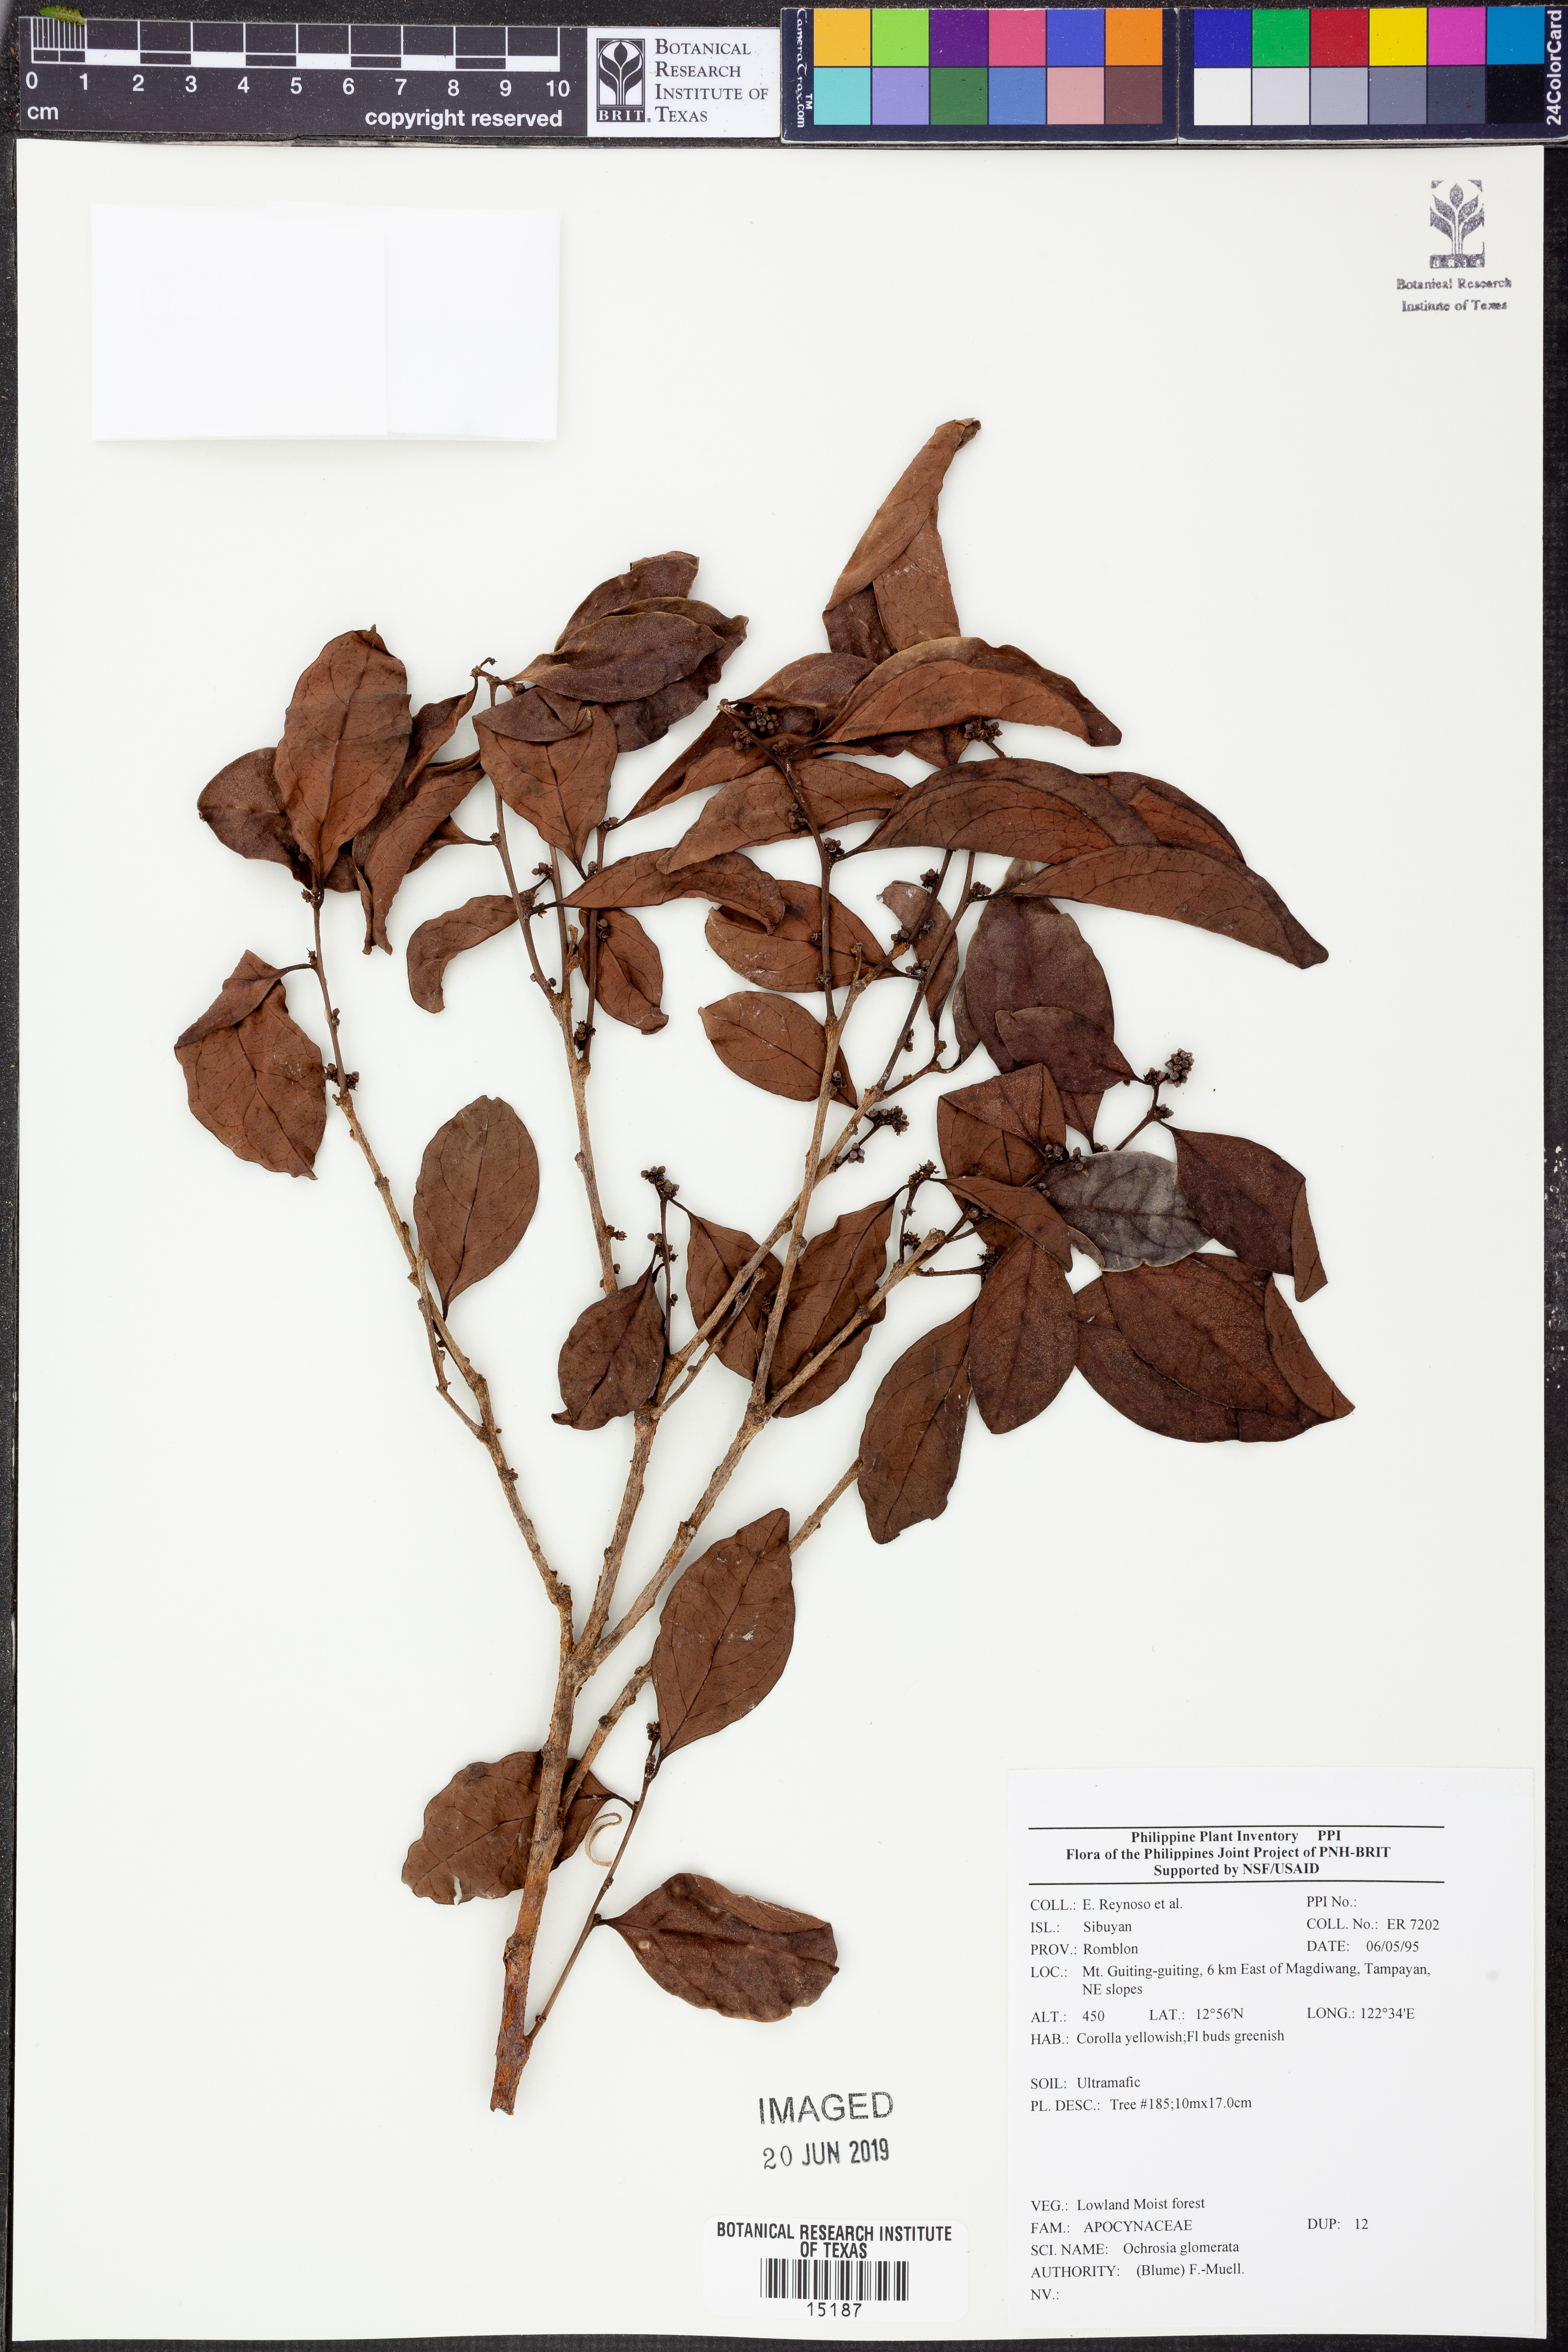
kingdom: Plantae
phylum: Tracheophyta
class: Magnoliopsida
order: Gentianales
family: Apocynaceae
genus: Ochrosia
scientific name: Ochrosia glomerata
